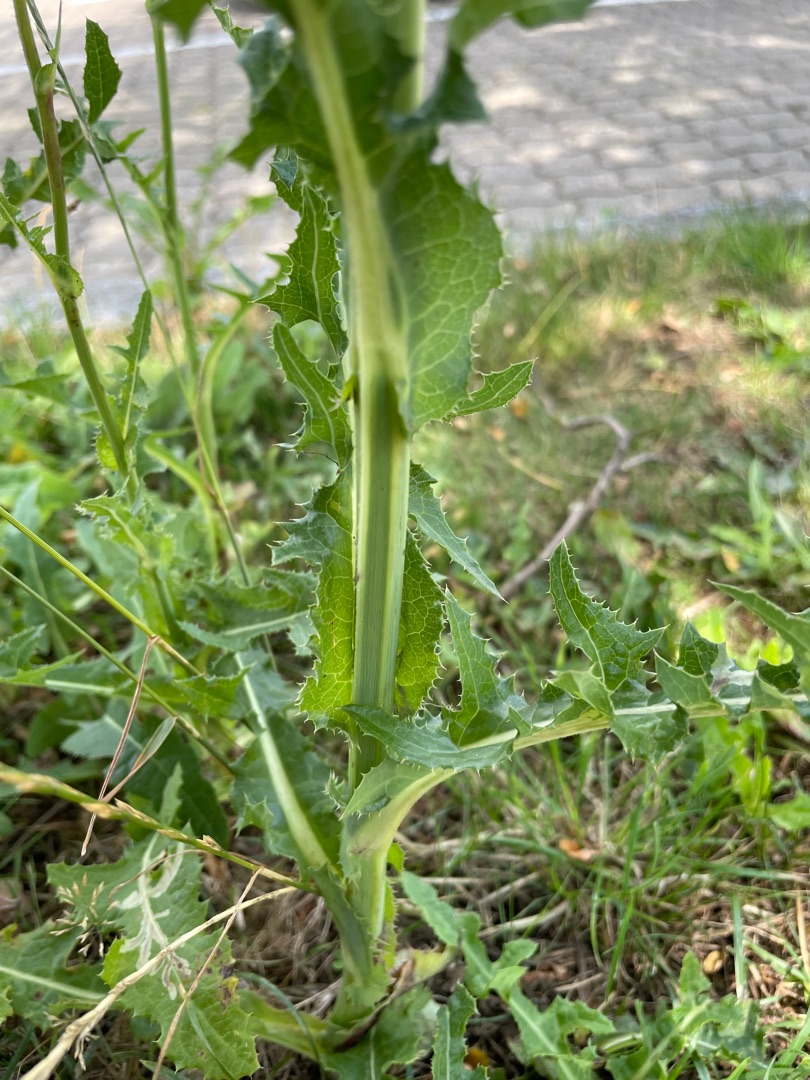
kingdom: Plantae
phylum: Tracheophyta
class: Magnoliopsida
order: Asterales
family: Asteraceae
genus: Sonchus
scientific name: Sonchus arvensis
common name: Ager-svinemælk
